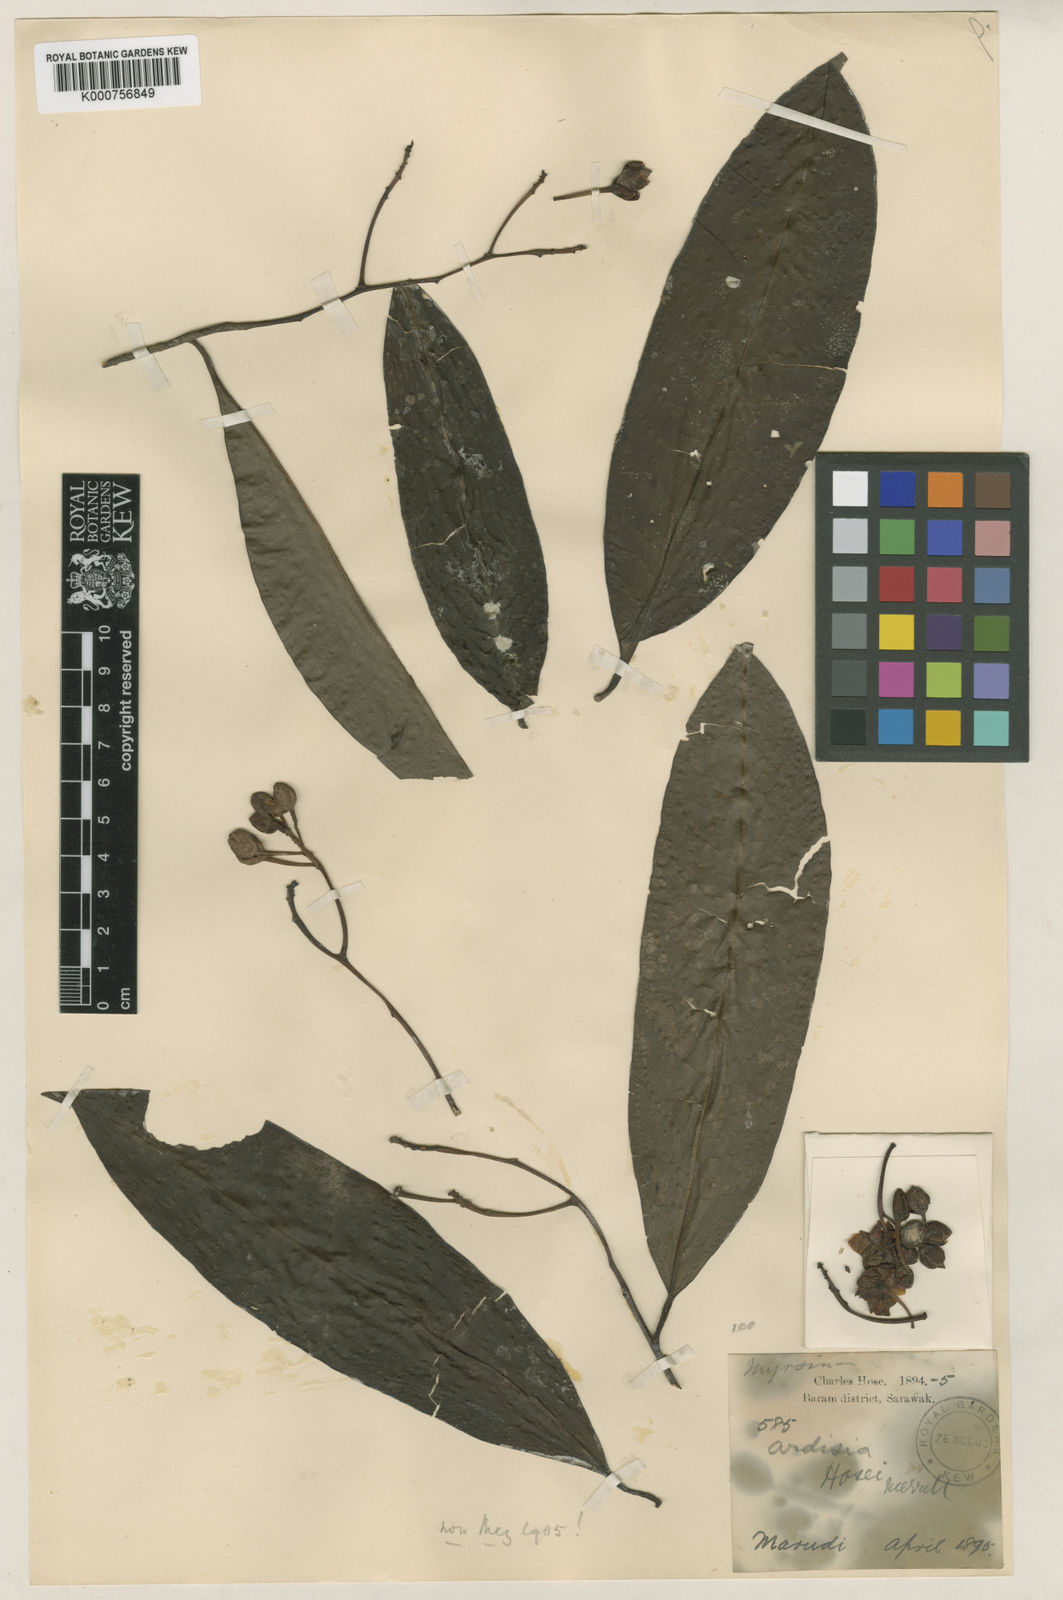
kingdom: Plantae
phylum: Tracheophyta
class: Magnoliopsida
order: Ericales
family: Primulaceae
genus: Ardisia
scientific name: Ardisia macrocalyx
